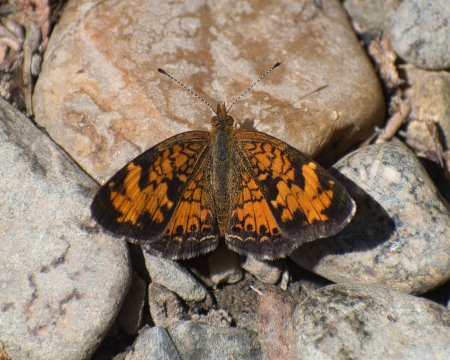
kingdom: Animalia
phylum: Arthropoda
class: Insecta
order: Lepidoptera
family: Nymphalidae
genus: Phyciodes
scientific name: Phyciodes tharos
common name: Northern Crescent
